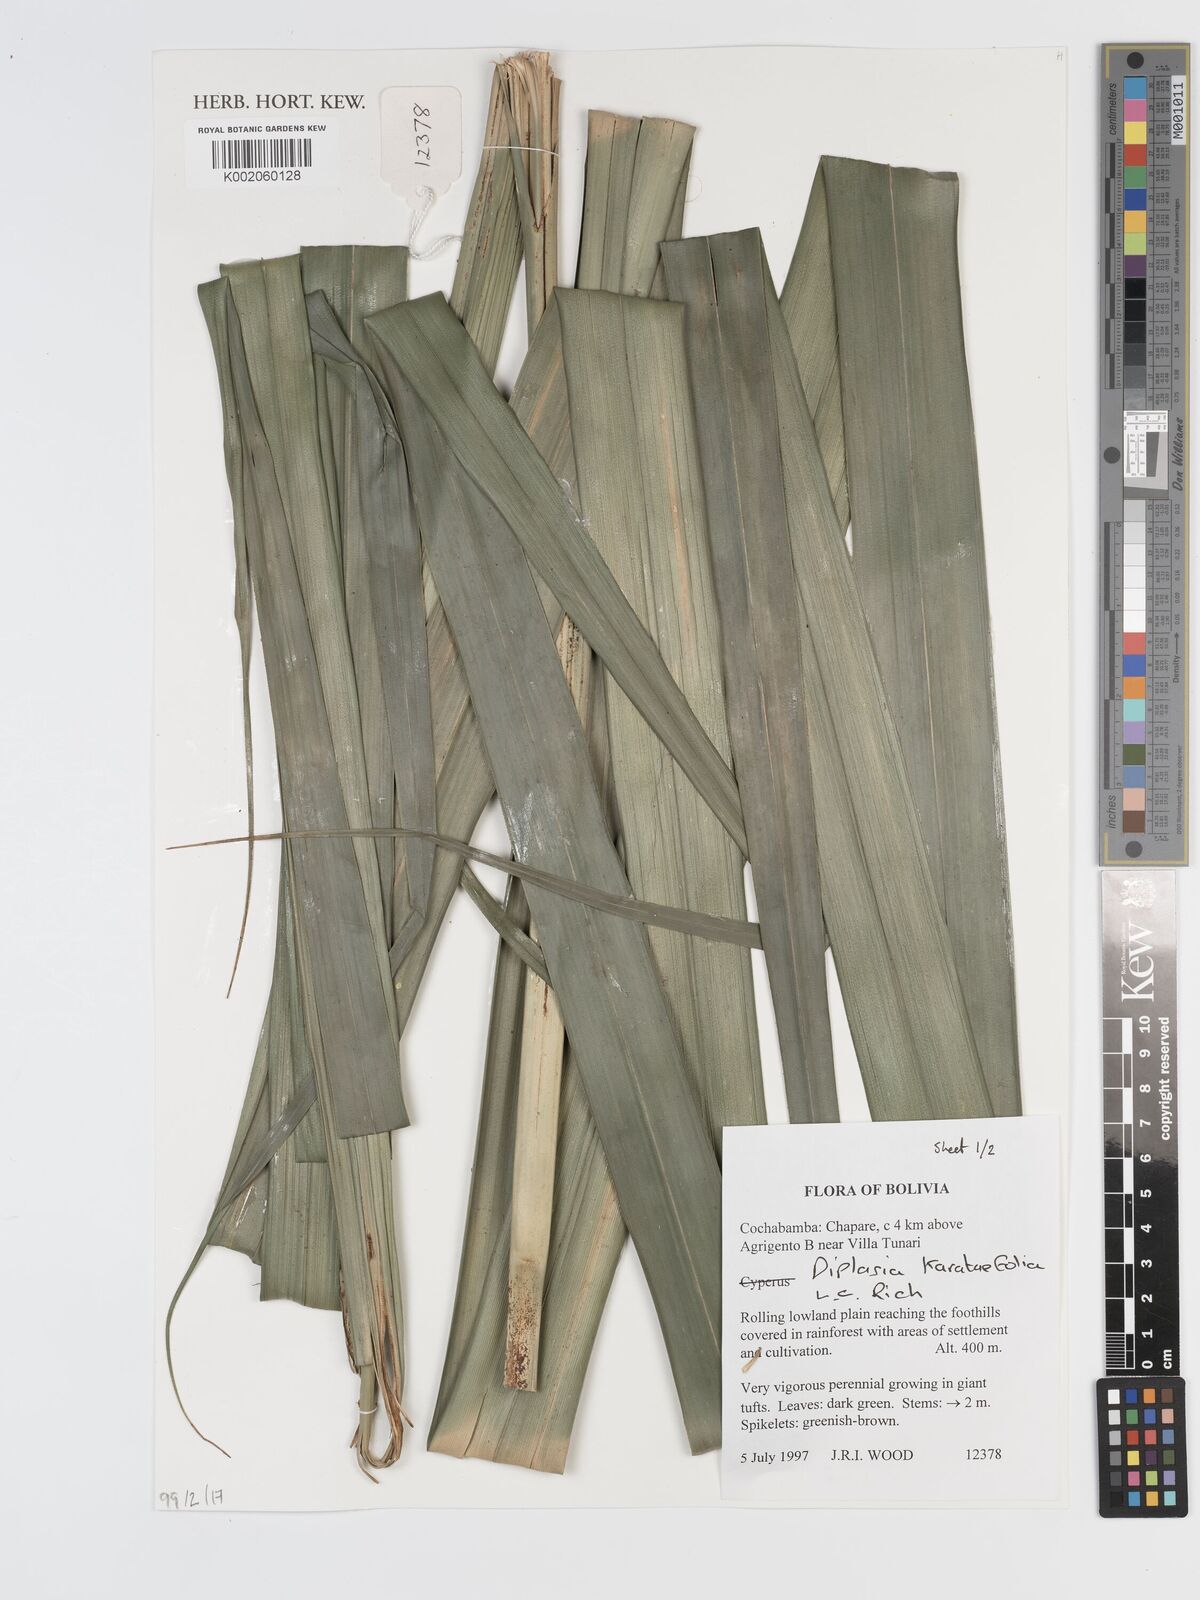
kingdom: Plantae
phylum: Tracheophyta
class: Liliopsida
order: Poales
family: Cyperaceae
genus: Diplasia
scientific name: Diplasia karatifolia
